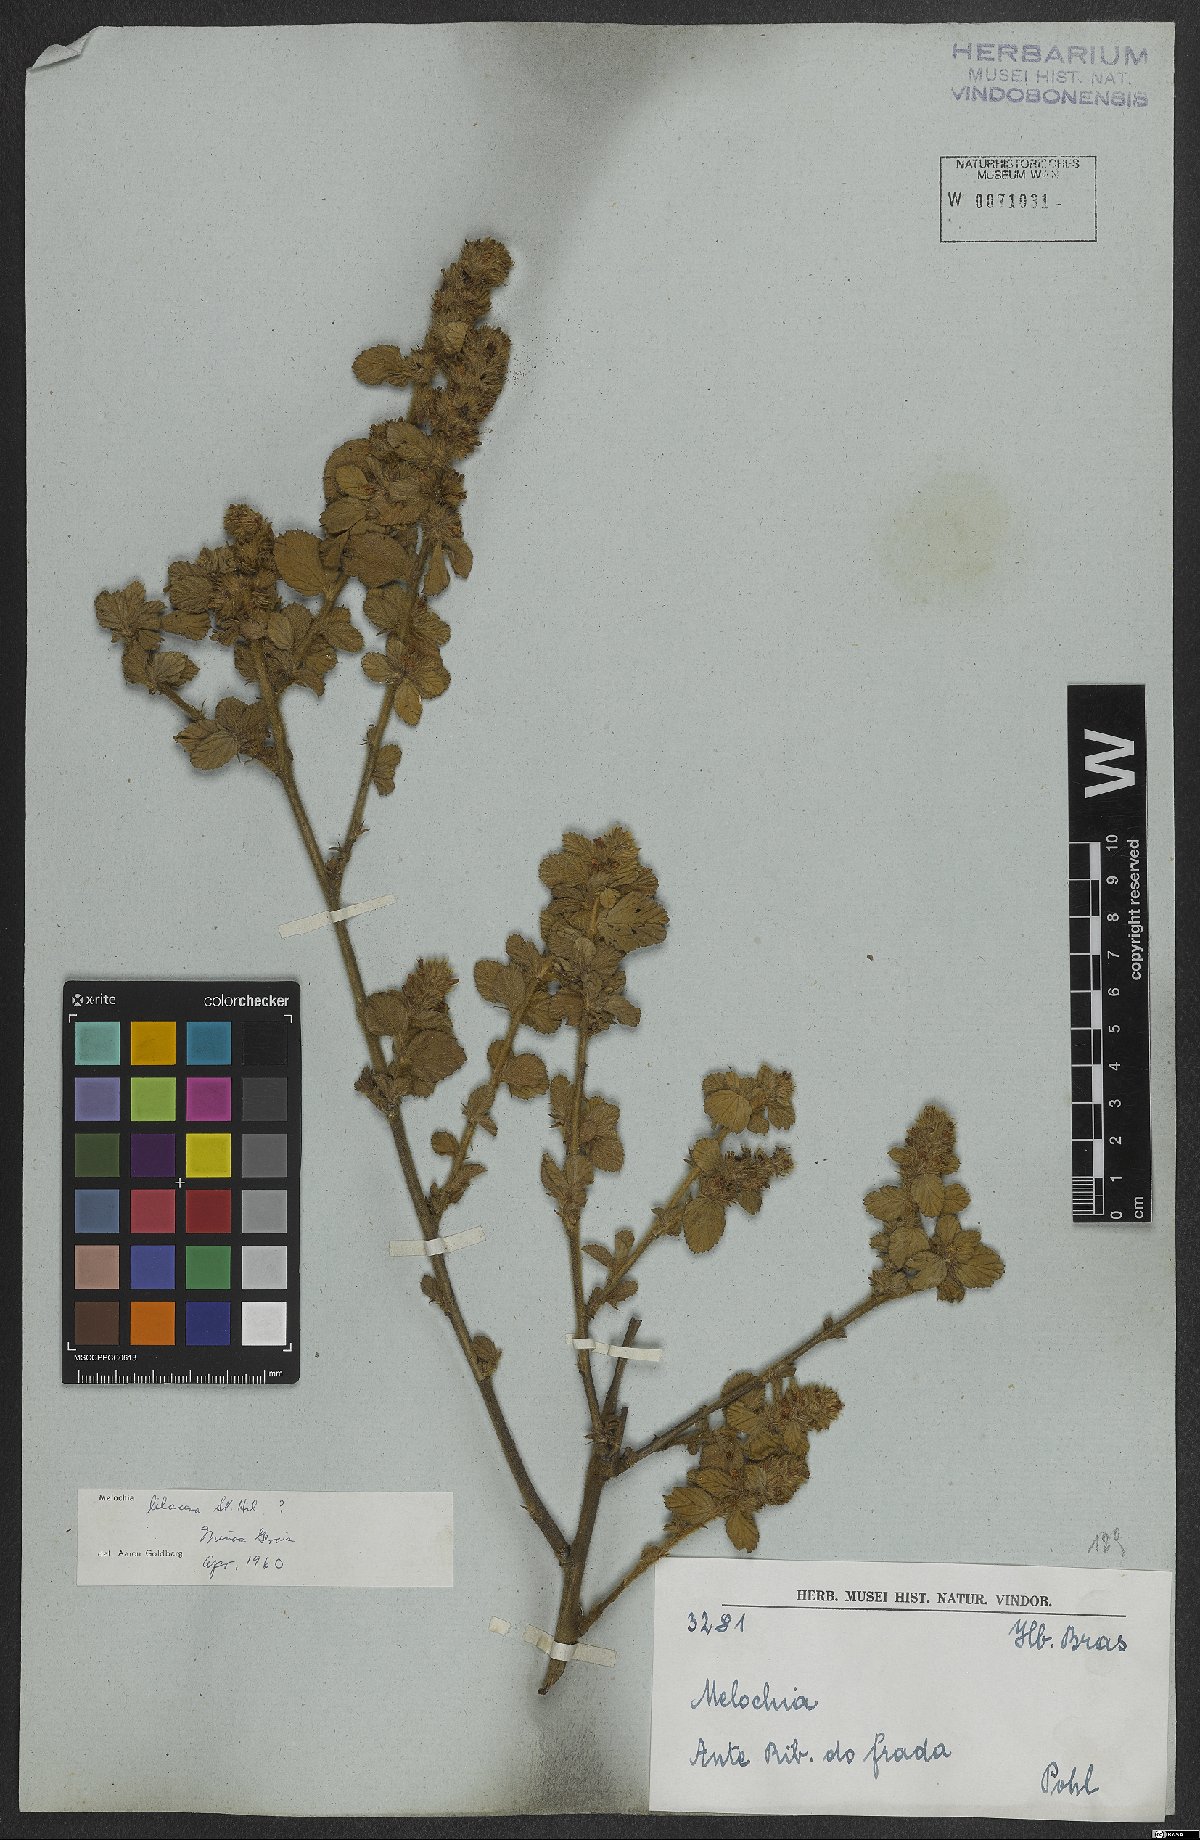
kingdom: Plantae
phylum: Tracheophyta
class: Magnoliopsida
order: Malvales
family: Malvaceae
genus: Melochia
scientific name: Melochia spicata
